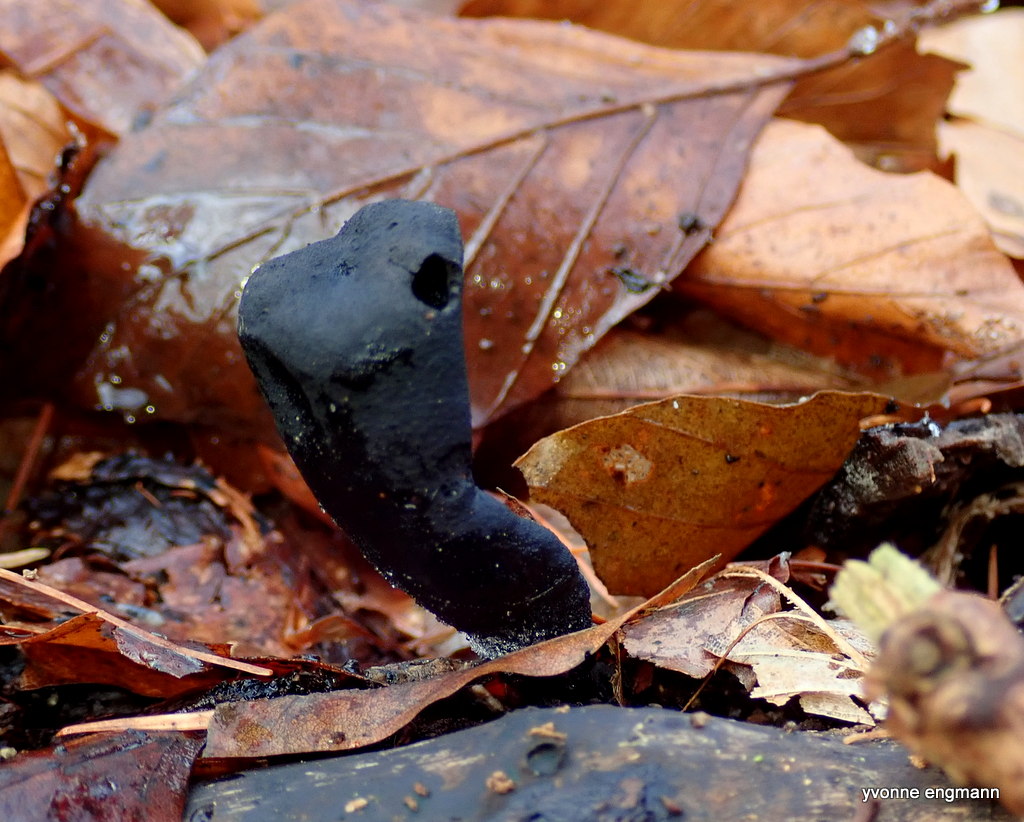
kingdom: Fungi
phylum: Ascomycota
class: Sordariomycetes
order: Xylariales
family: Xylariaceae
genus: Xylaria
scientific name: Xylaria longipes
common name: slank stødsvamp
